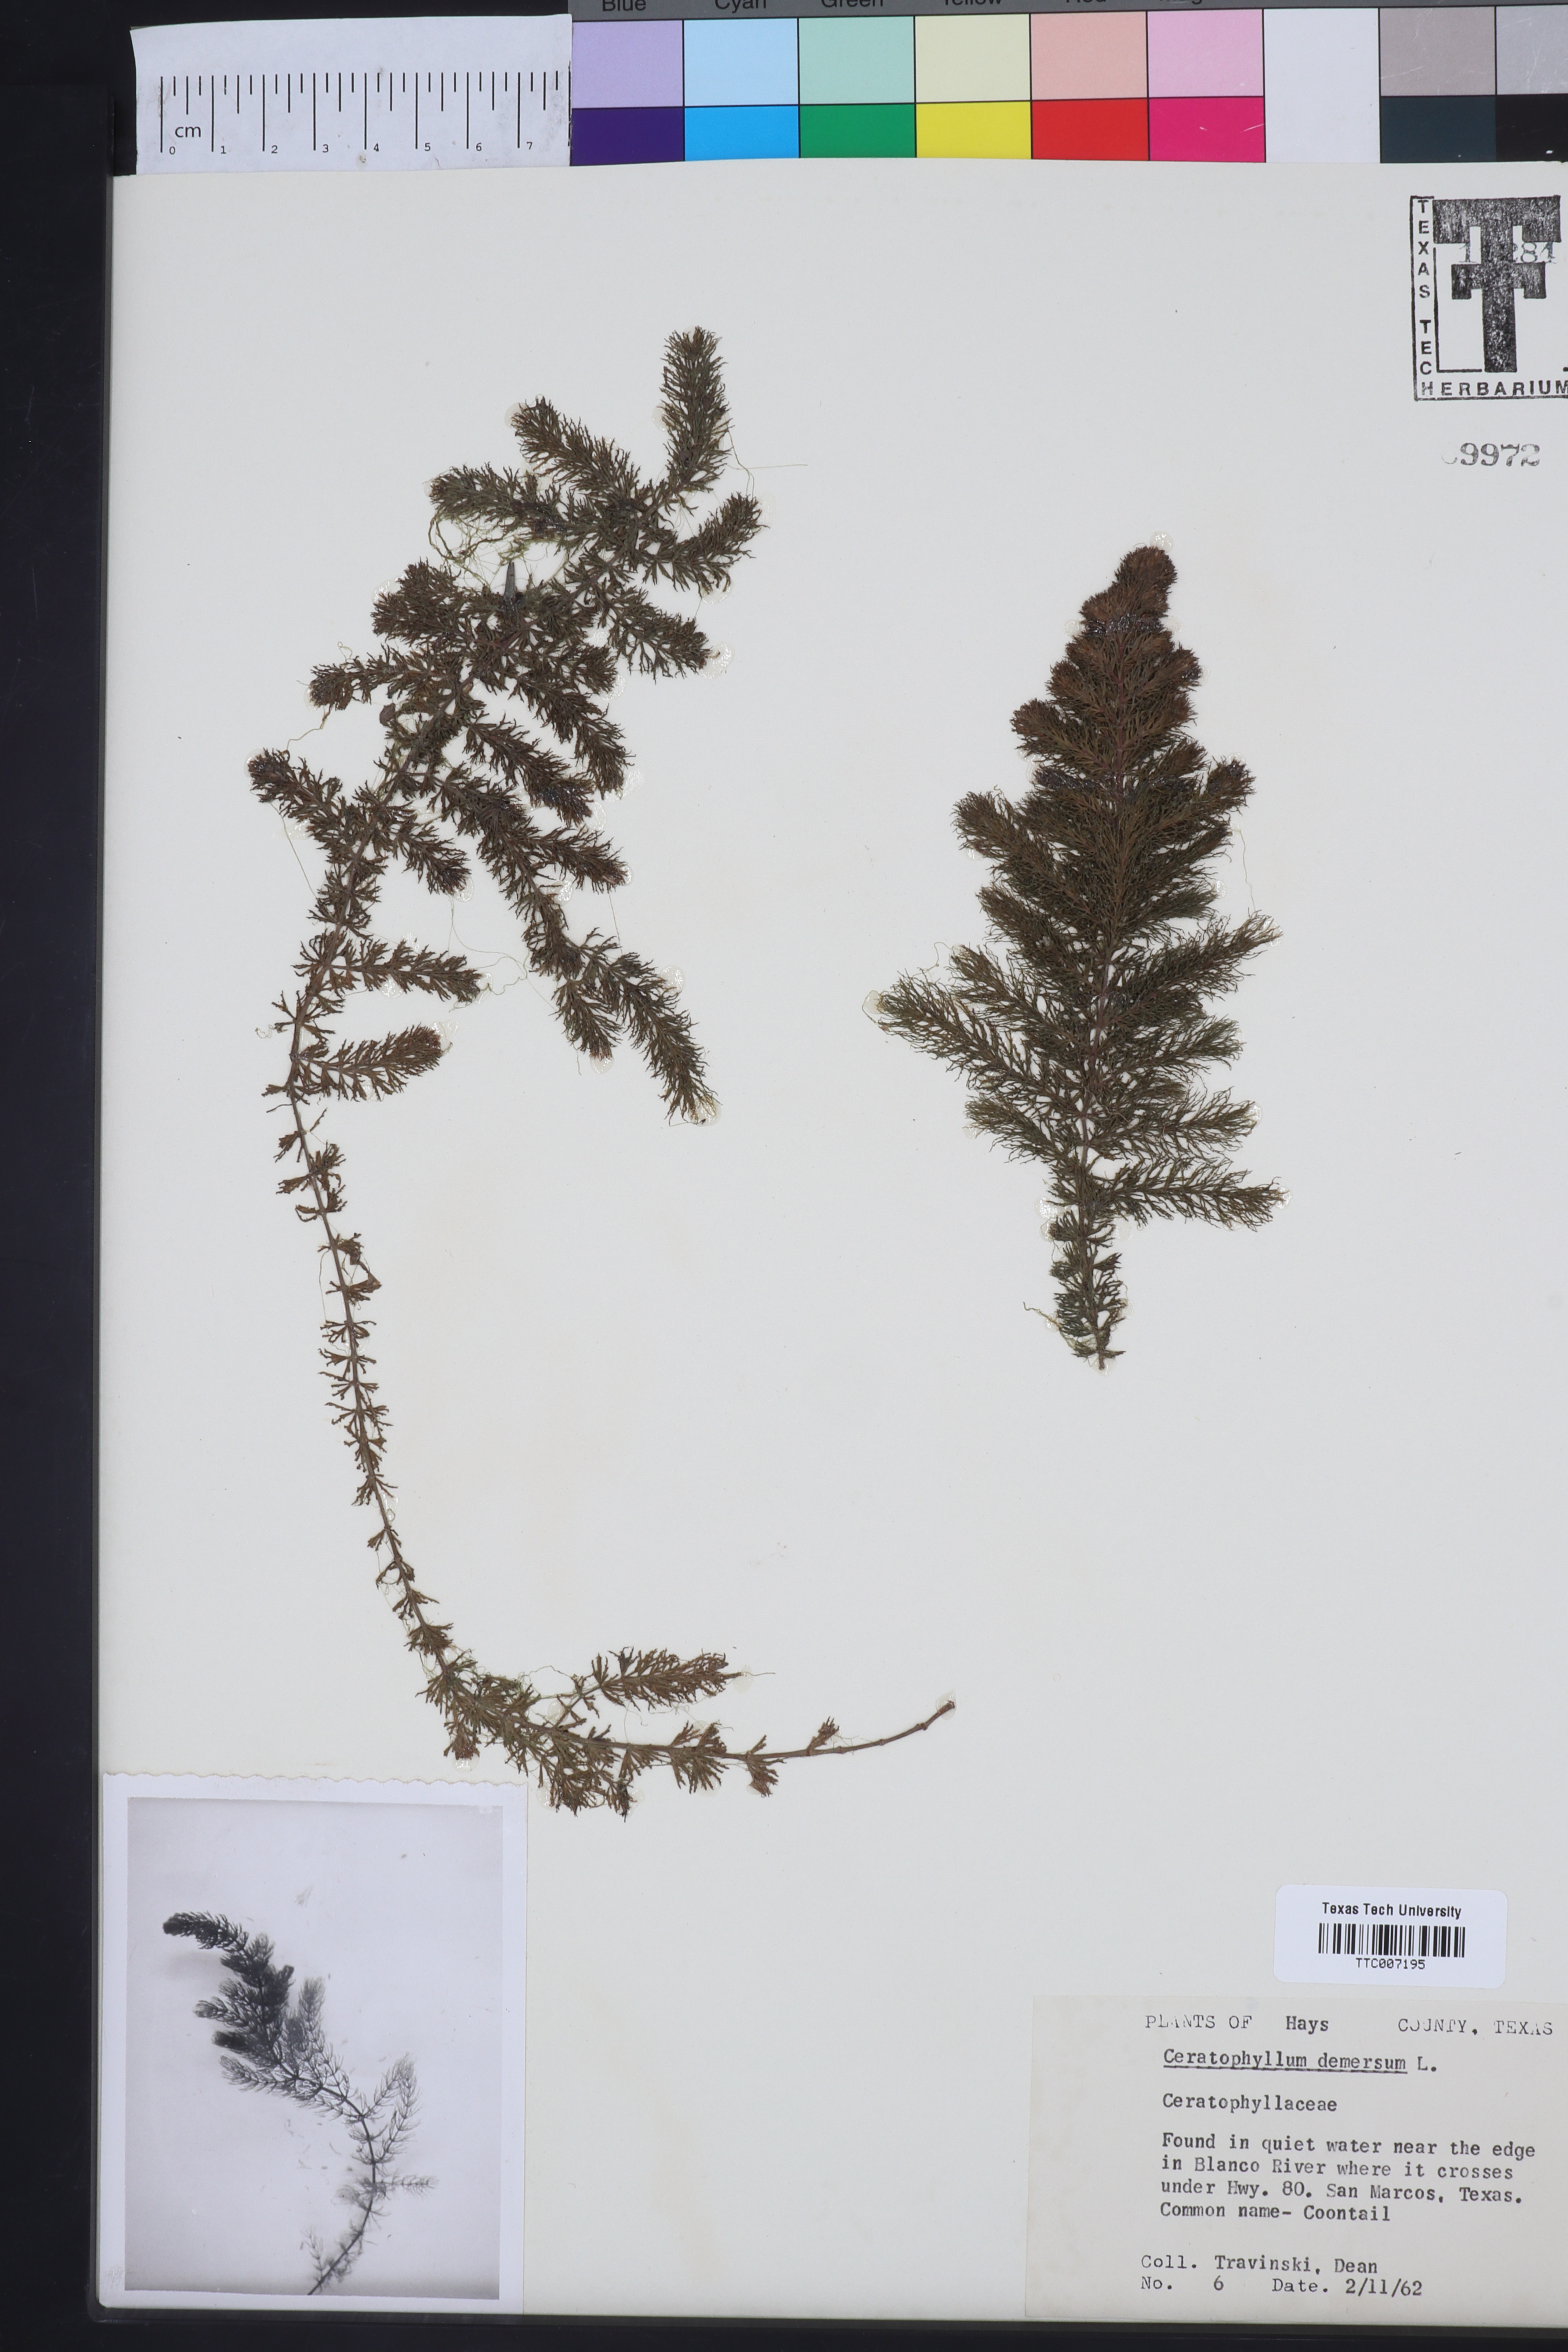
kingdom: Plantae
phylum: Tracheophyta
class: Magnoliopsida
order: Ceratophyllales
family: Ceratophyllaceae
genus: Ceratophyllum
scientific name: Ceratophyllum demersum
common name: Rigid hornwort
